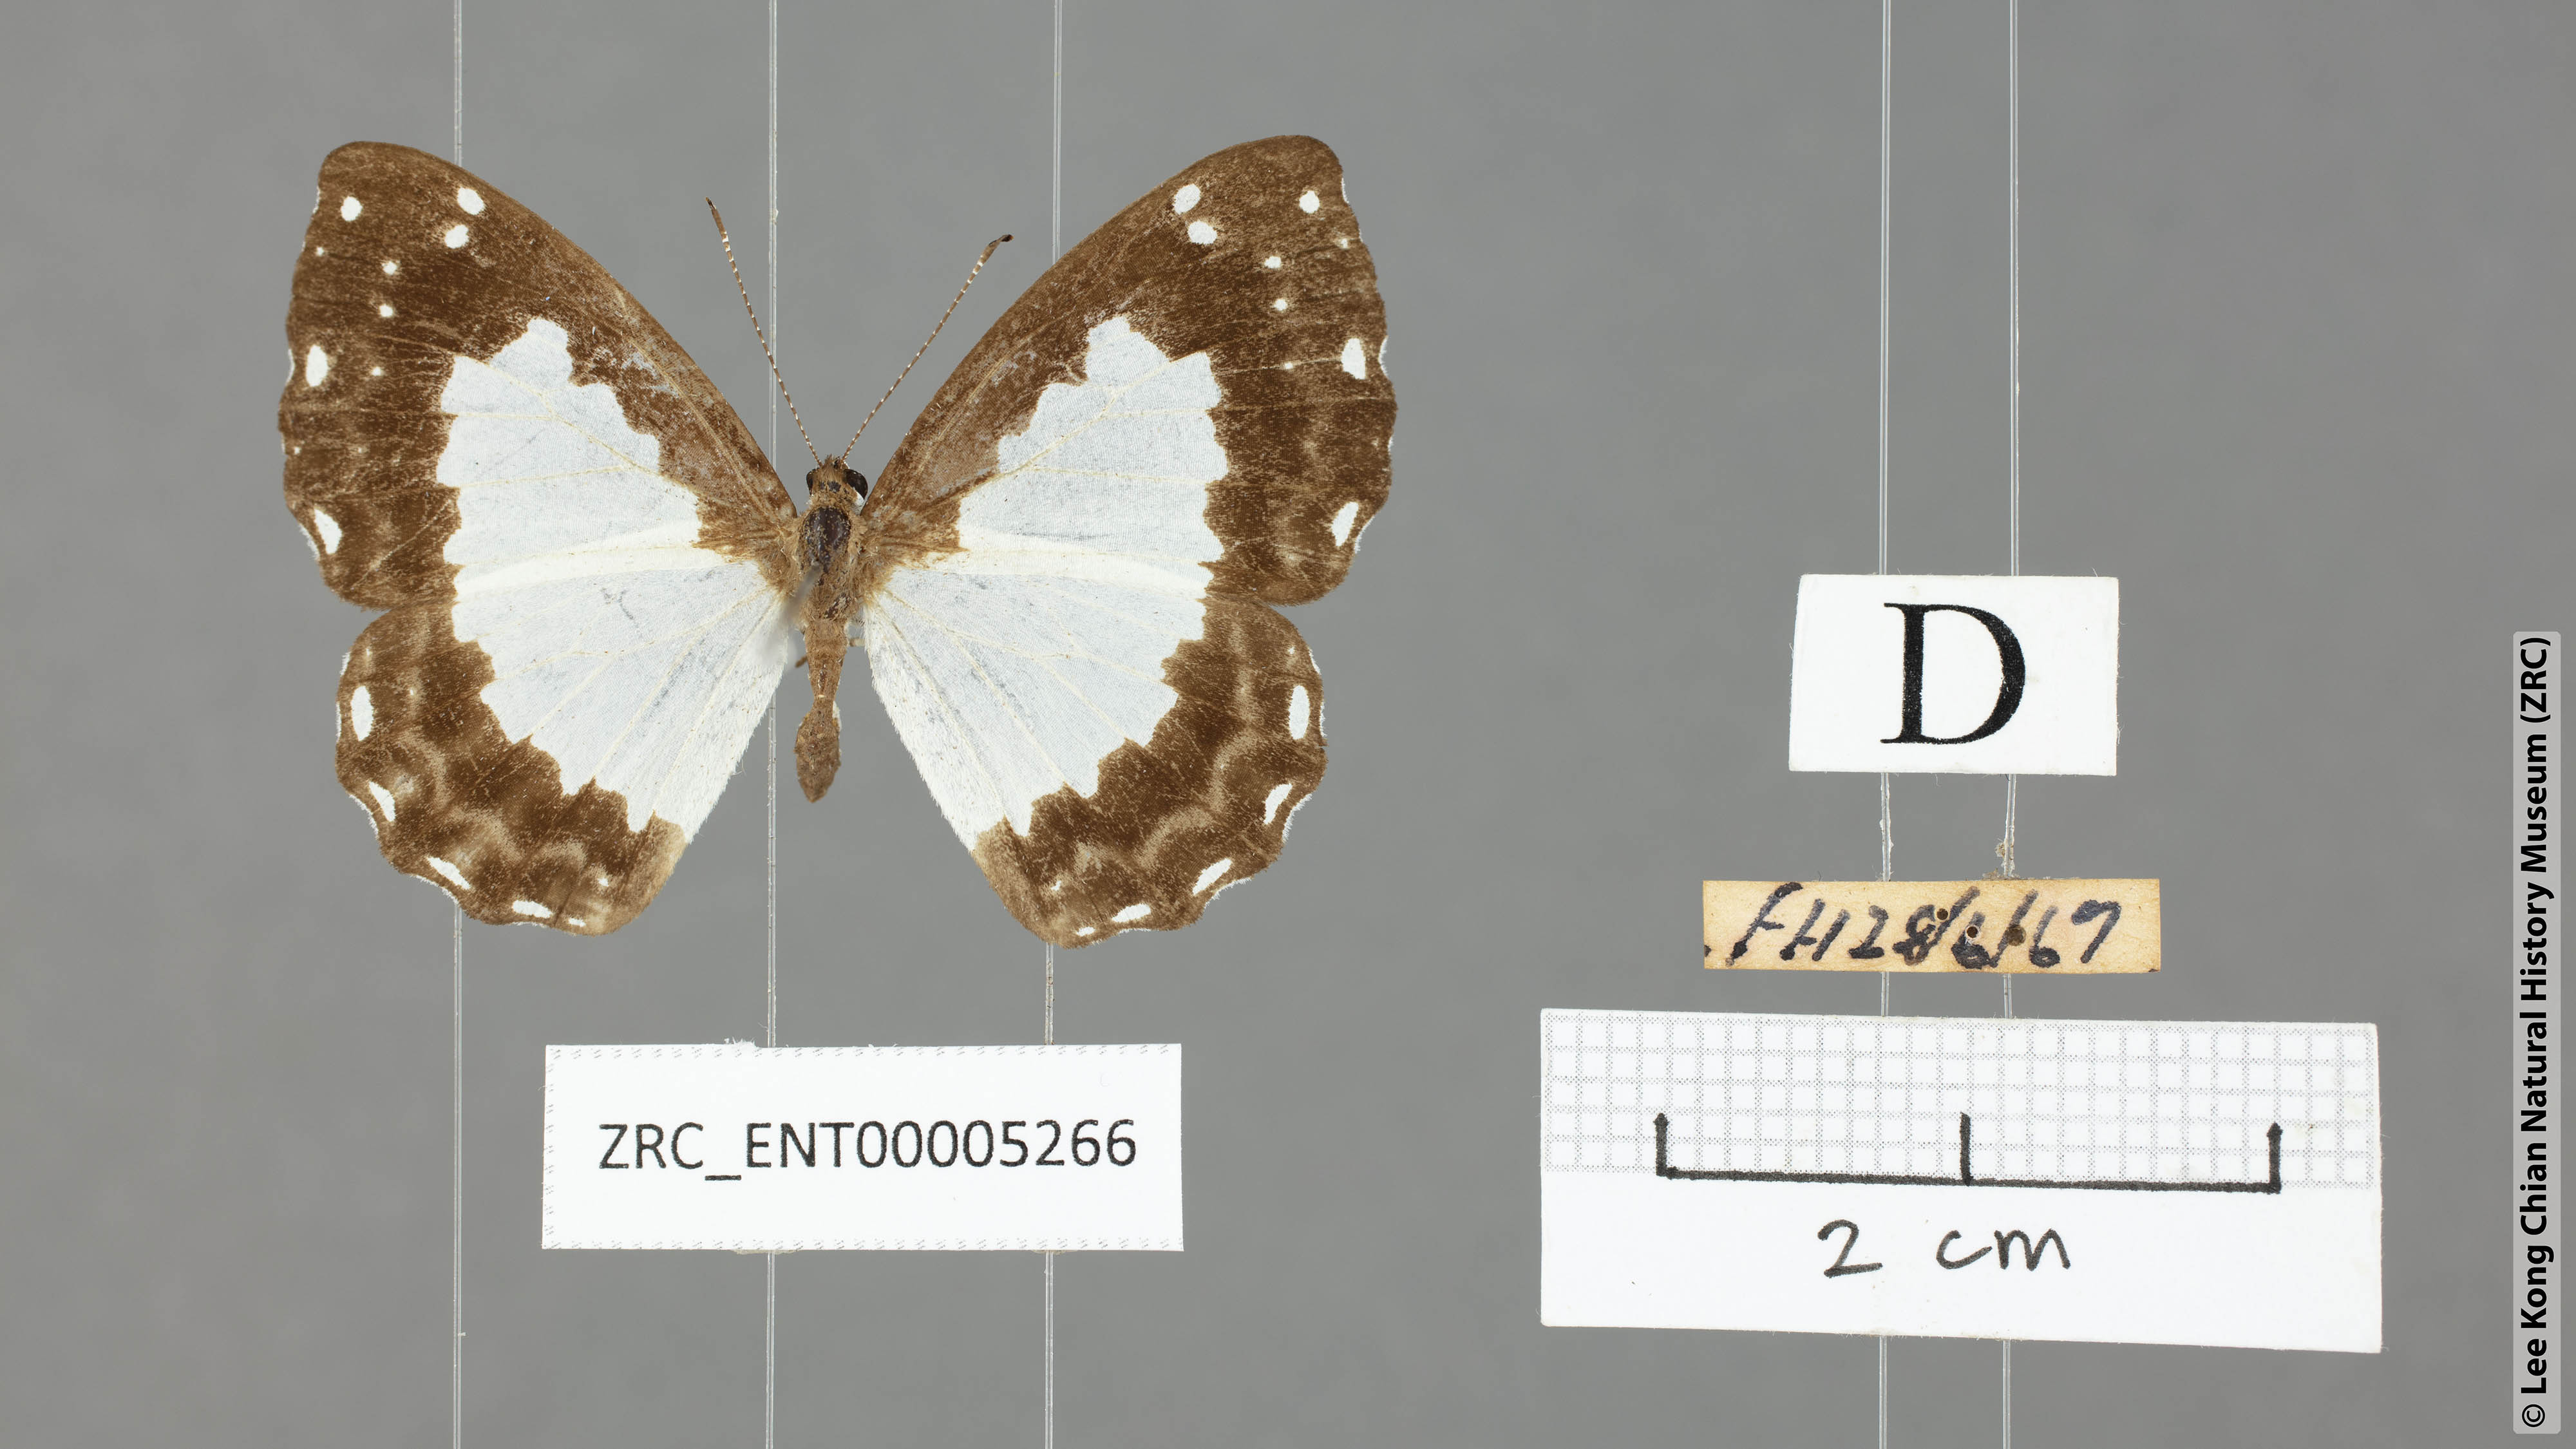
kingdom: Animalia
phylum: Arthropoda
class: Insecta
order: Lepidoptera
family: Riodinidae
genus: Stiboges
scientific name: Stiboges nymphidia
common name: Columbine
